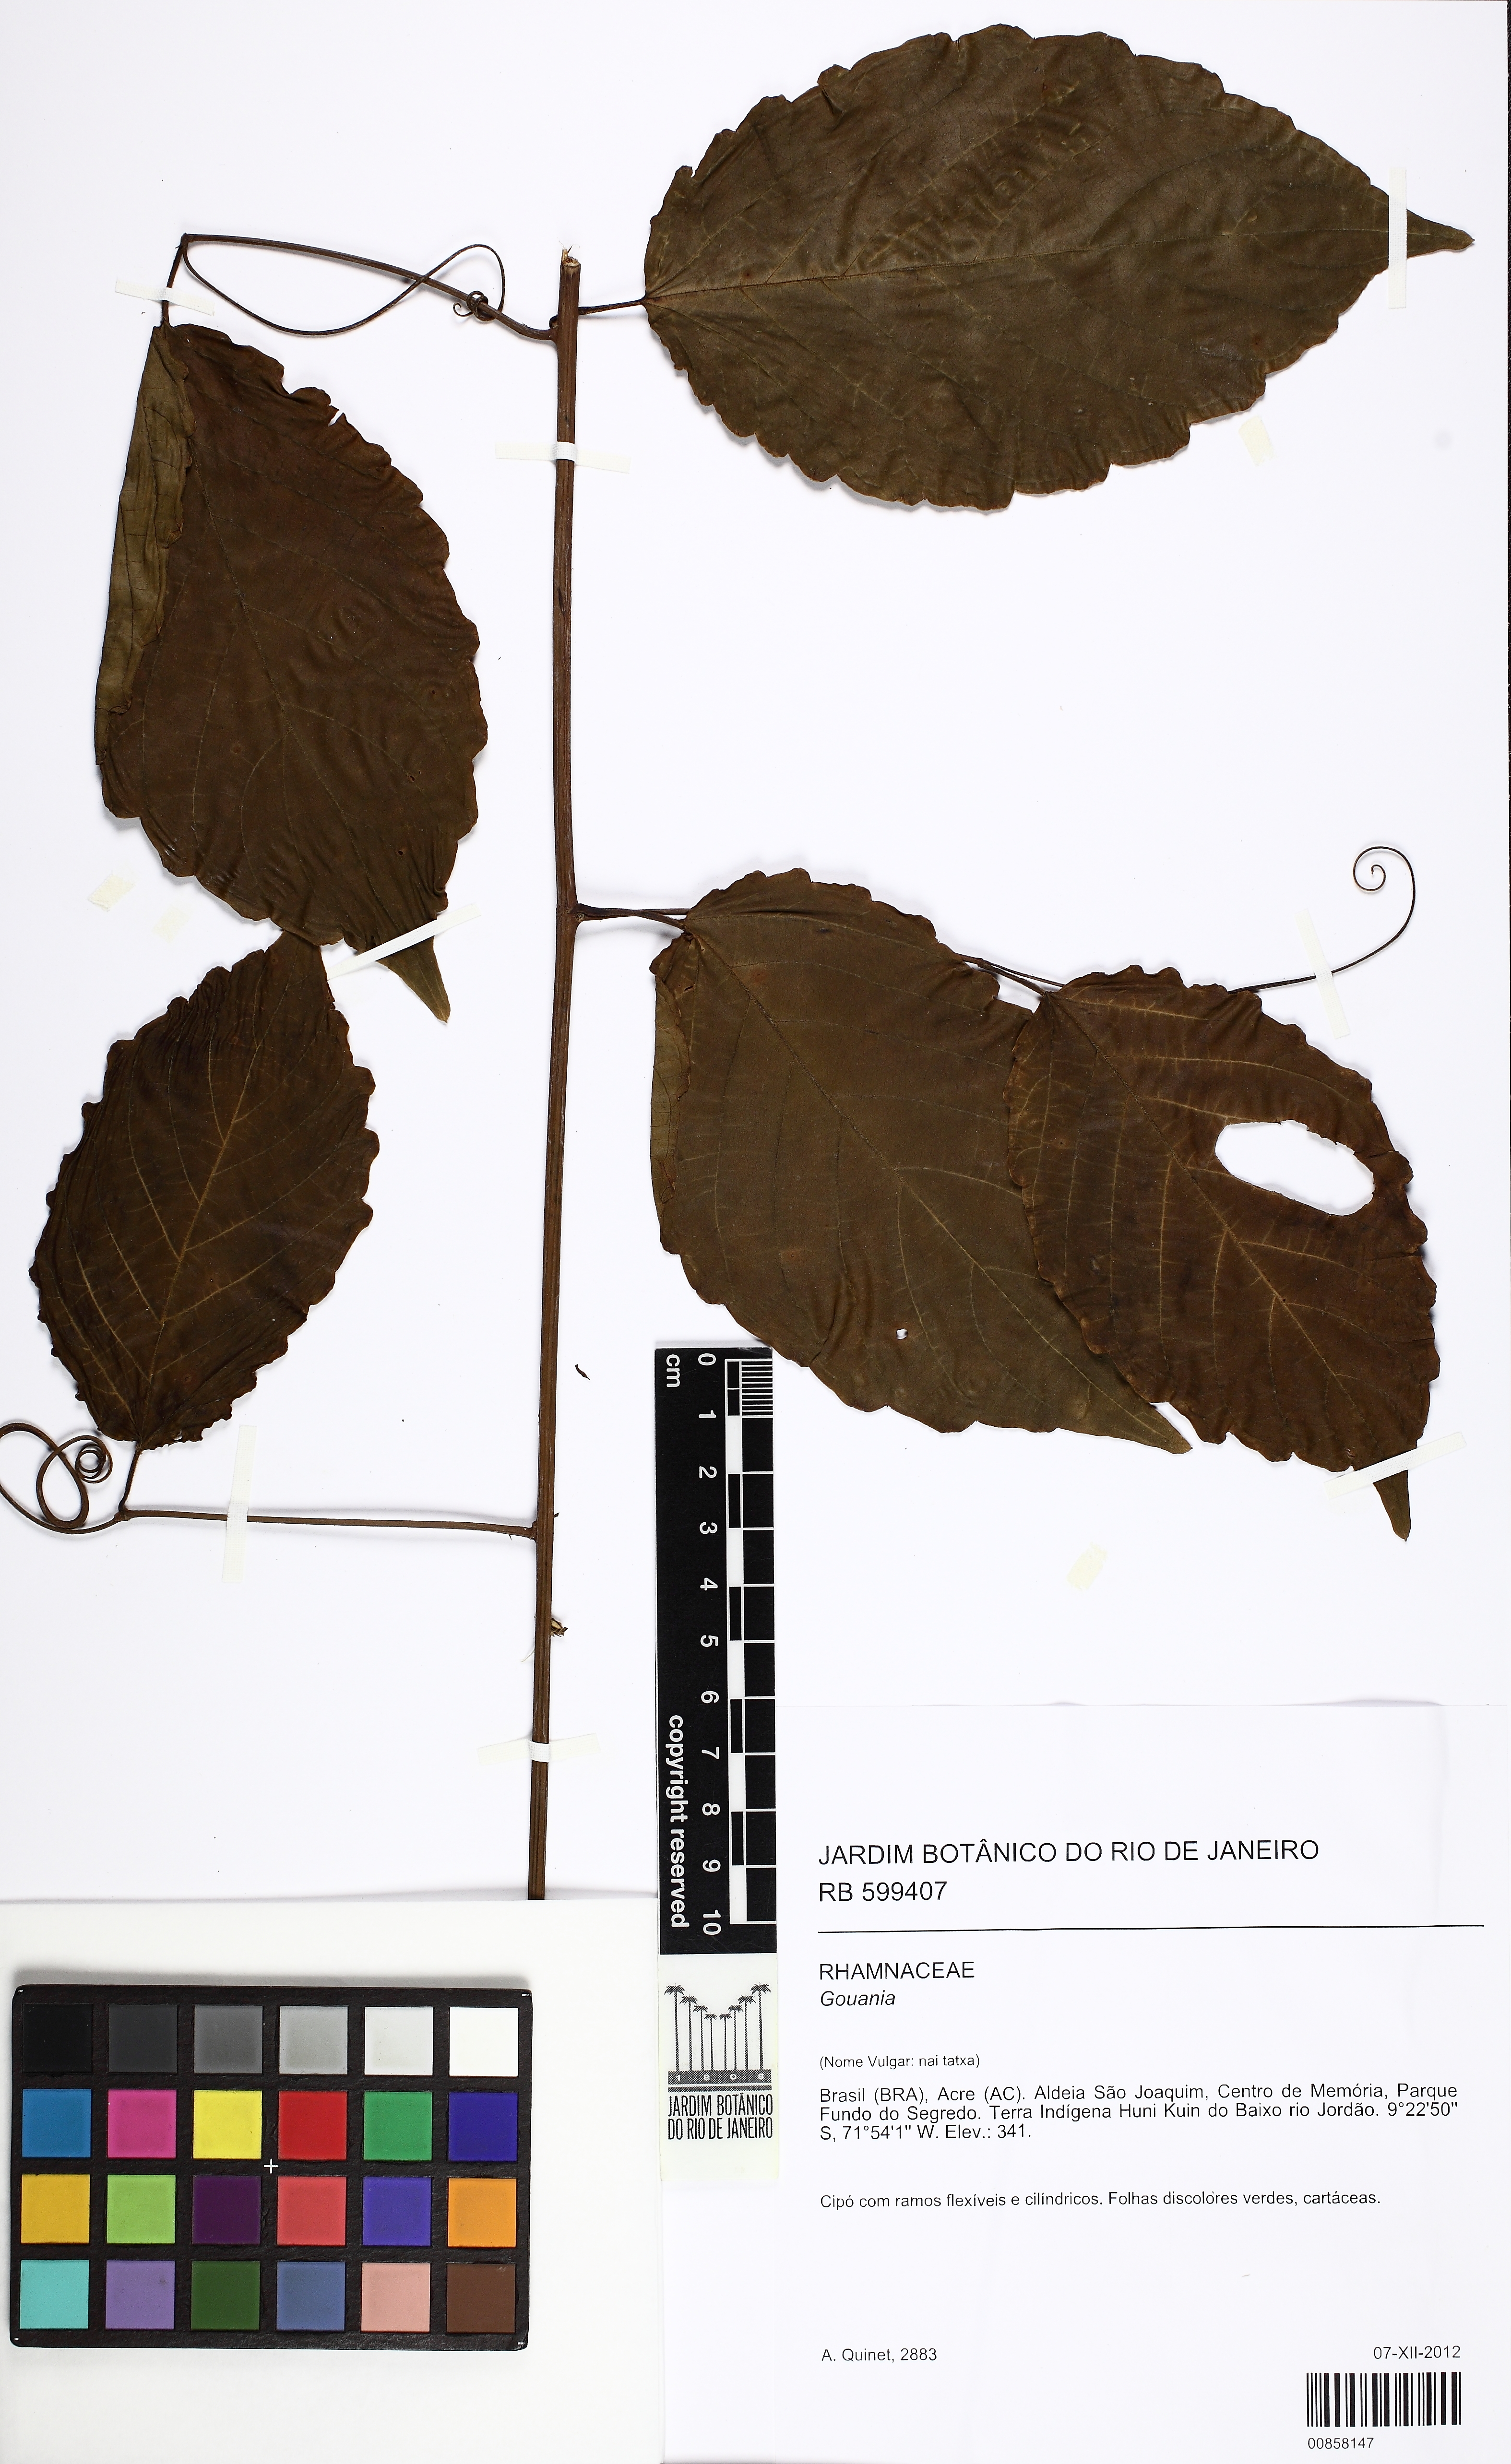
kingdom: Plantae
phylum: Tracheophyta
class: Magnoliopsida
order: Rosales
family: Rhamnaceae
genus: Gouania
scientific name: Gouania
